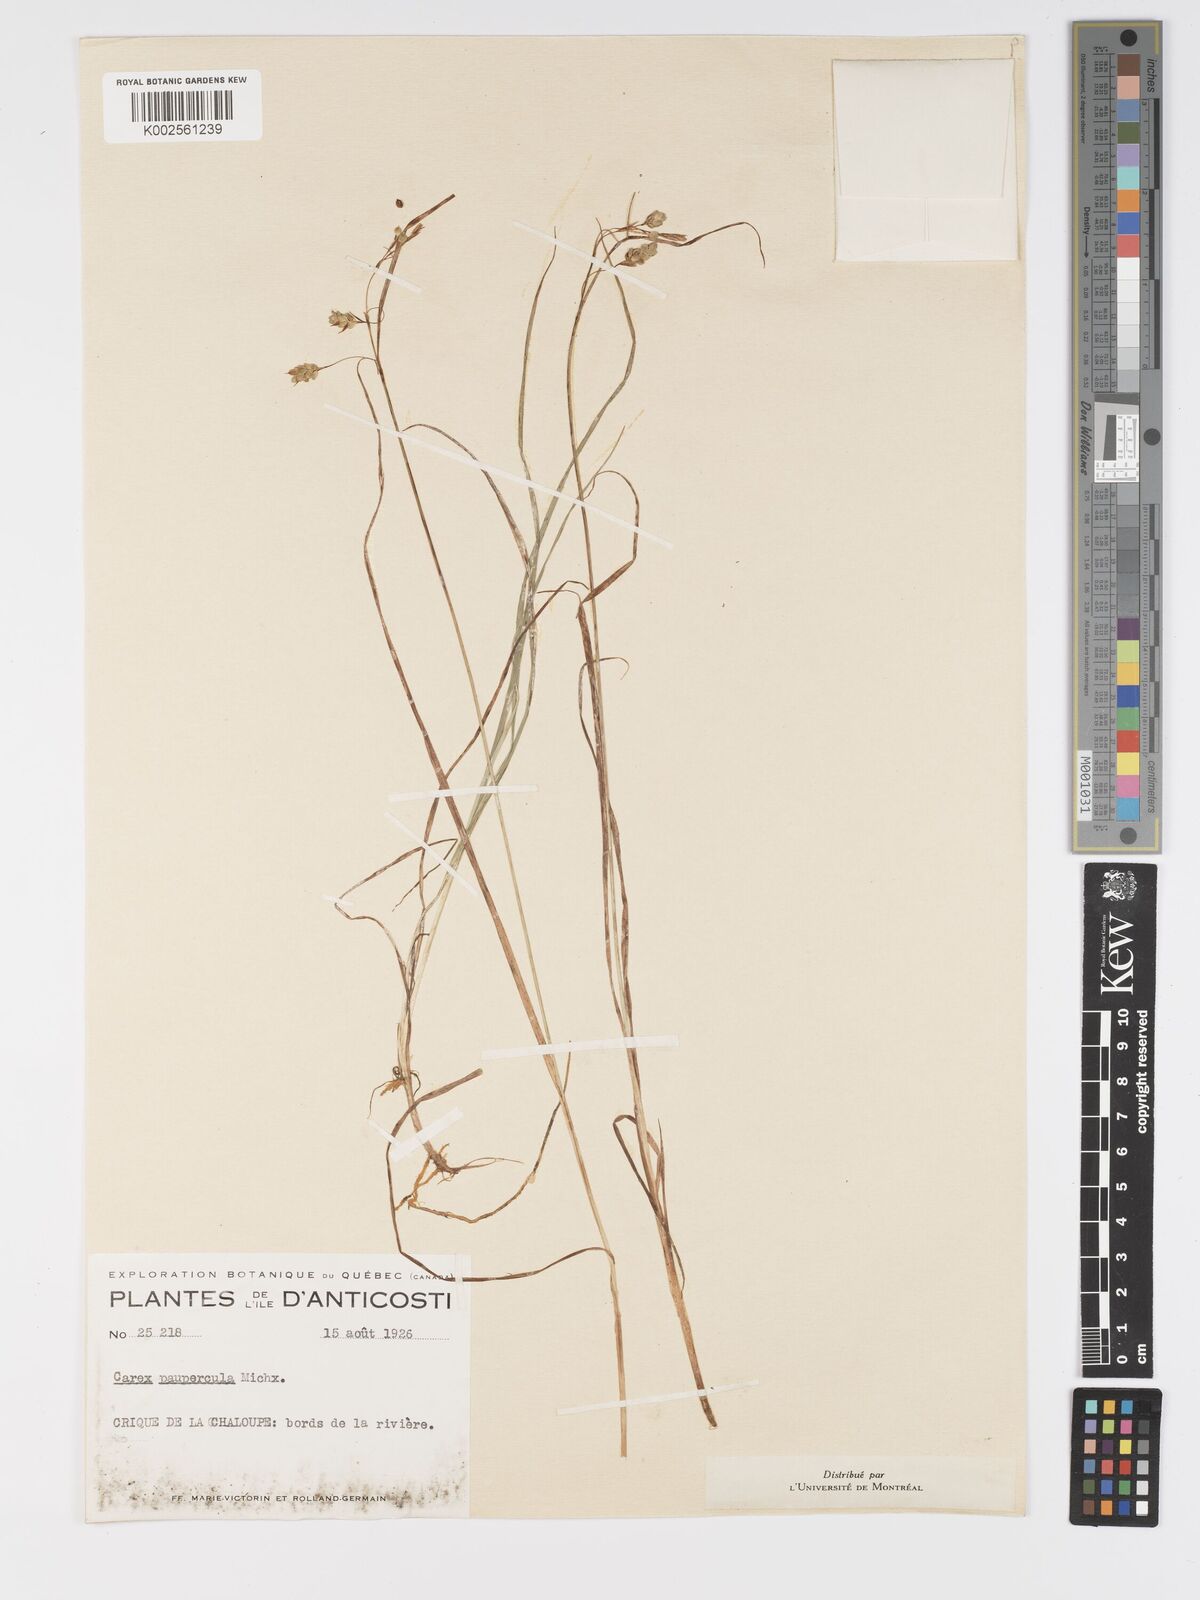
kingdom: Plantae
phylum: Tracheophyta
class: Liliopsida
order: Poales
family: Cyperaceae
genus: Carex
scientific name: Carex limosa
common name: Bog sedge
